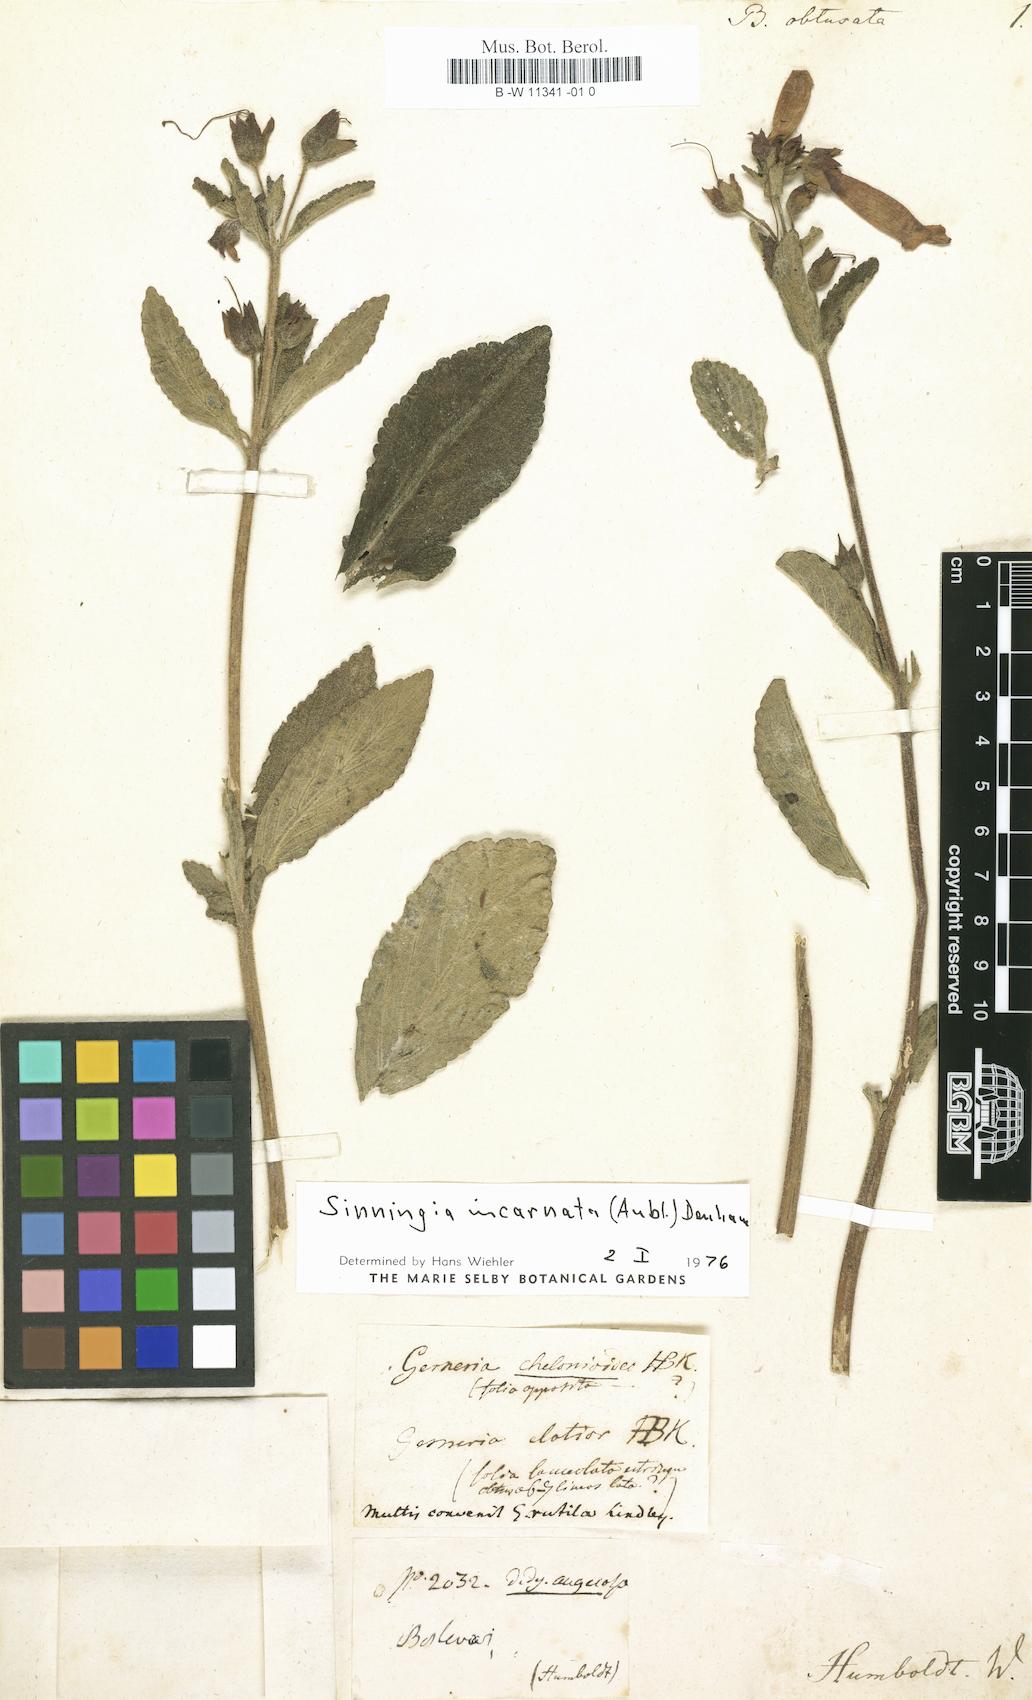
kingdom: Plantae
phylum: Tracheophyta
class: Magnoliopsida
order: Lamiales
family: Gesneriaceae
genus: Besleria
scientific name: Besleria obtusa
